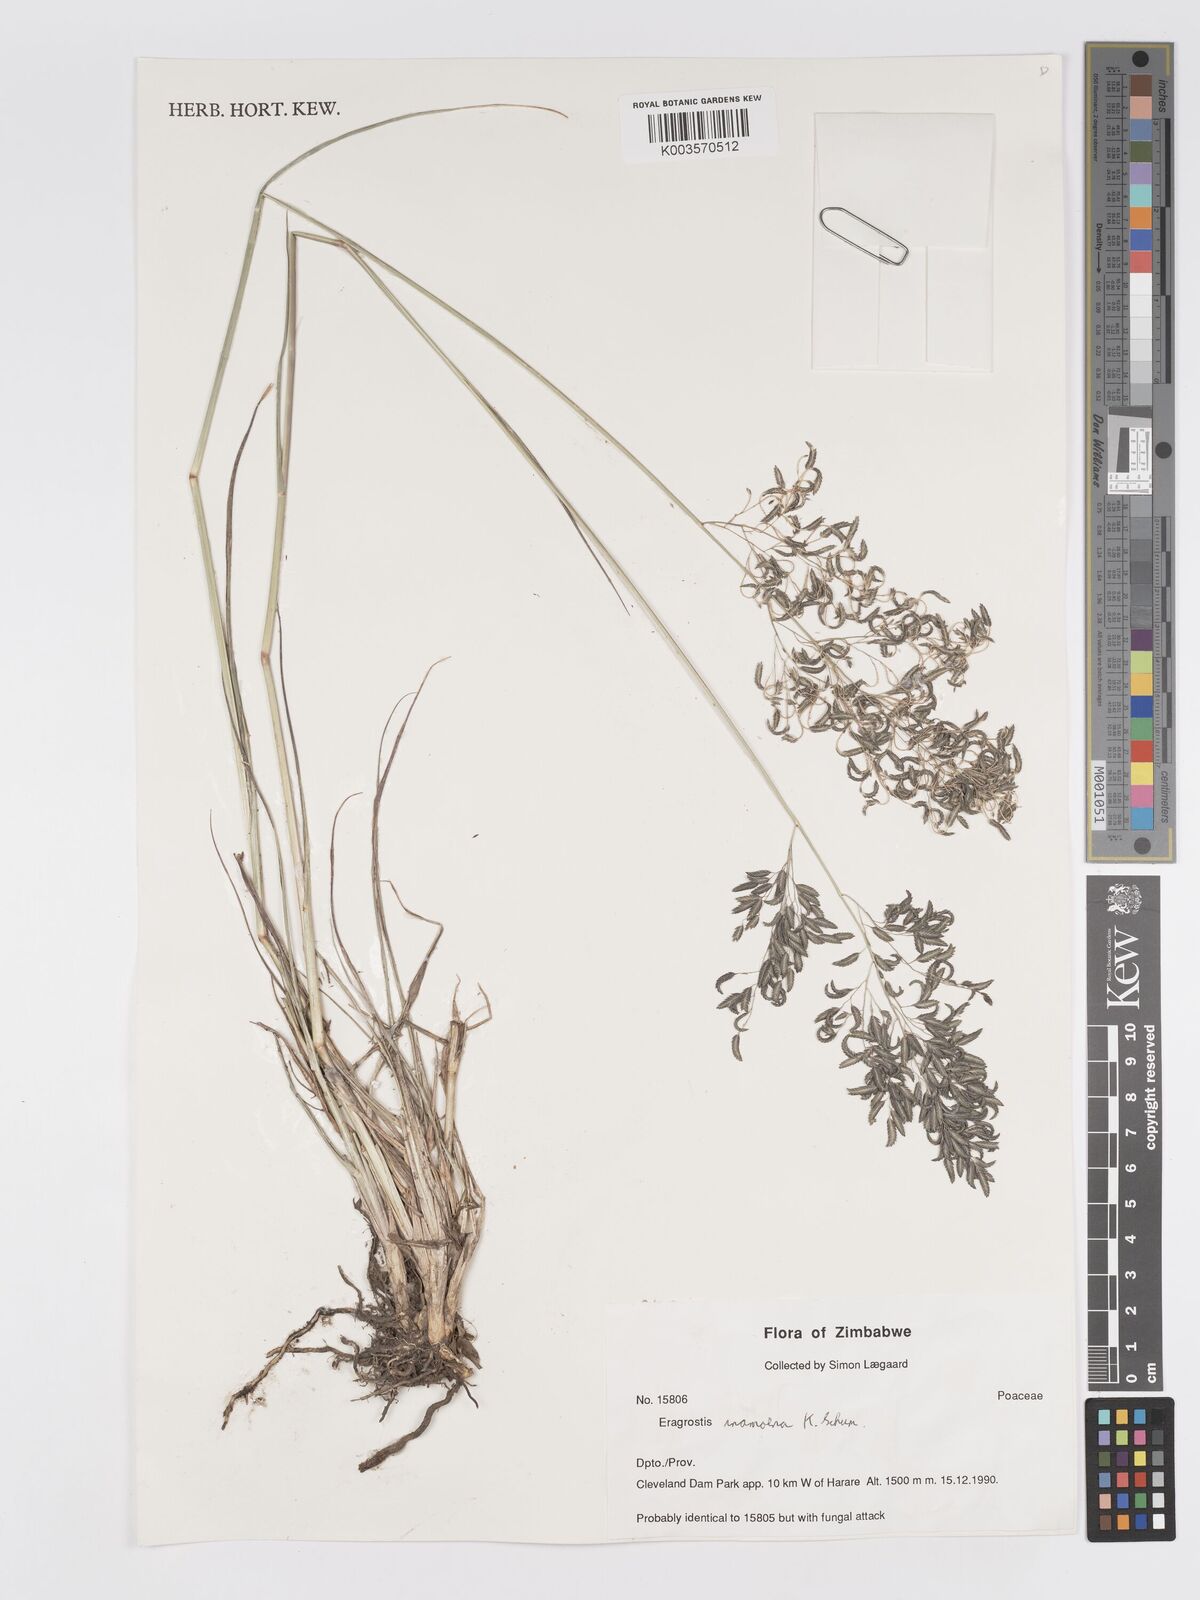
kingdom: Plantae
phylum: Tracheophyta
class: Liliopsida
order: Poales
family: Poaceae
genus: Eragrostis
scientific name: Eragrostis inamoena
